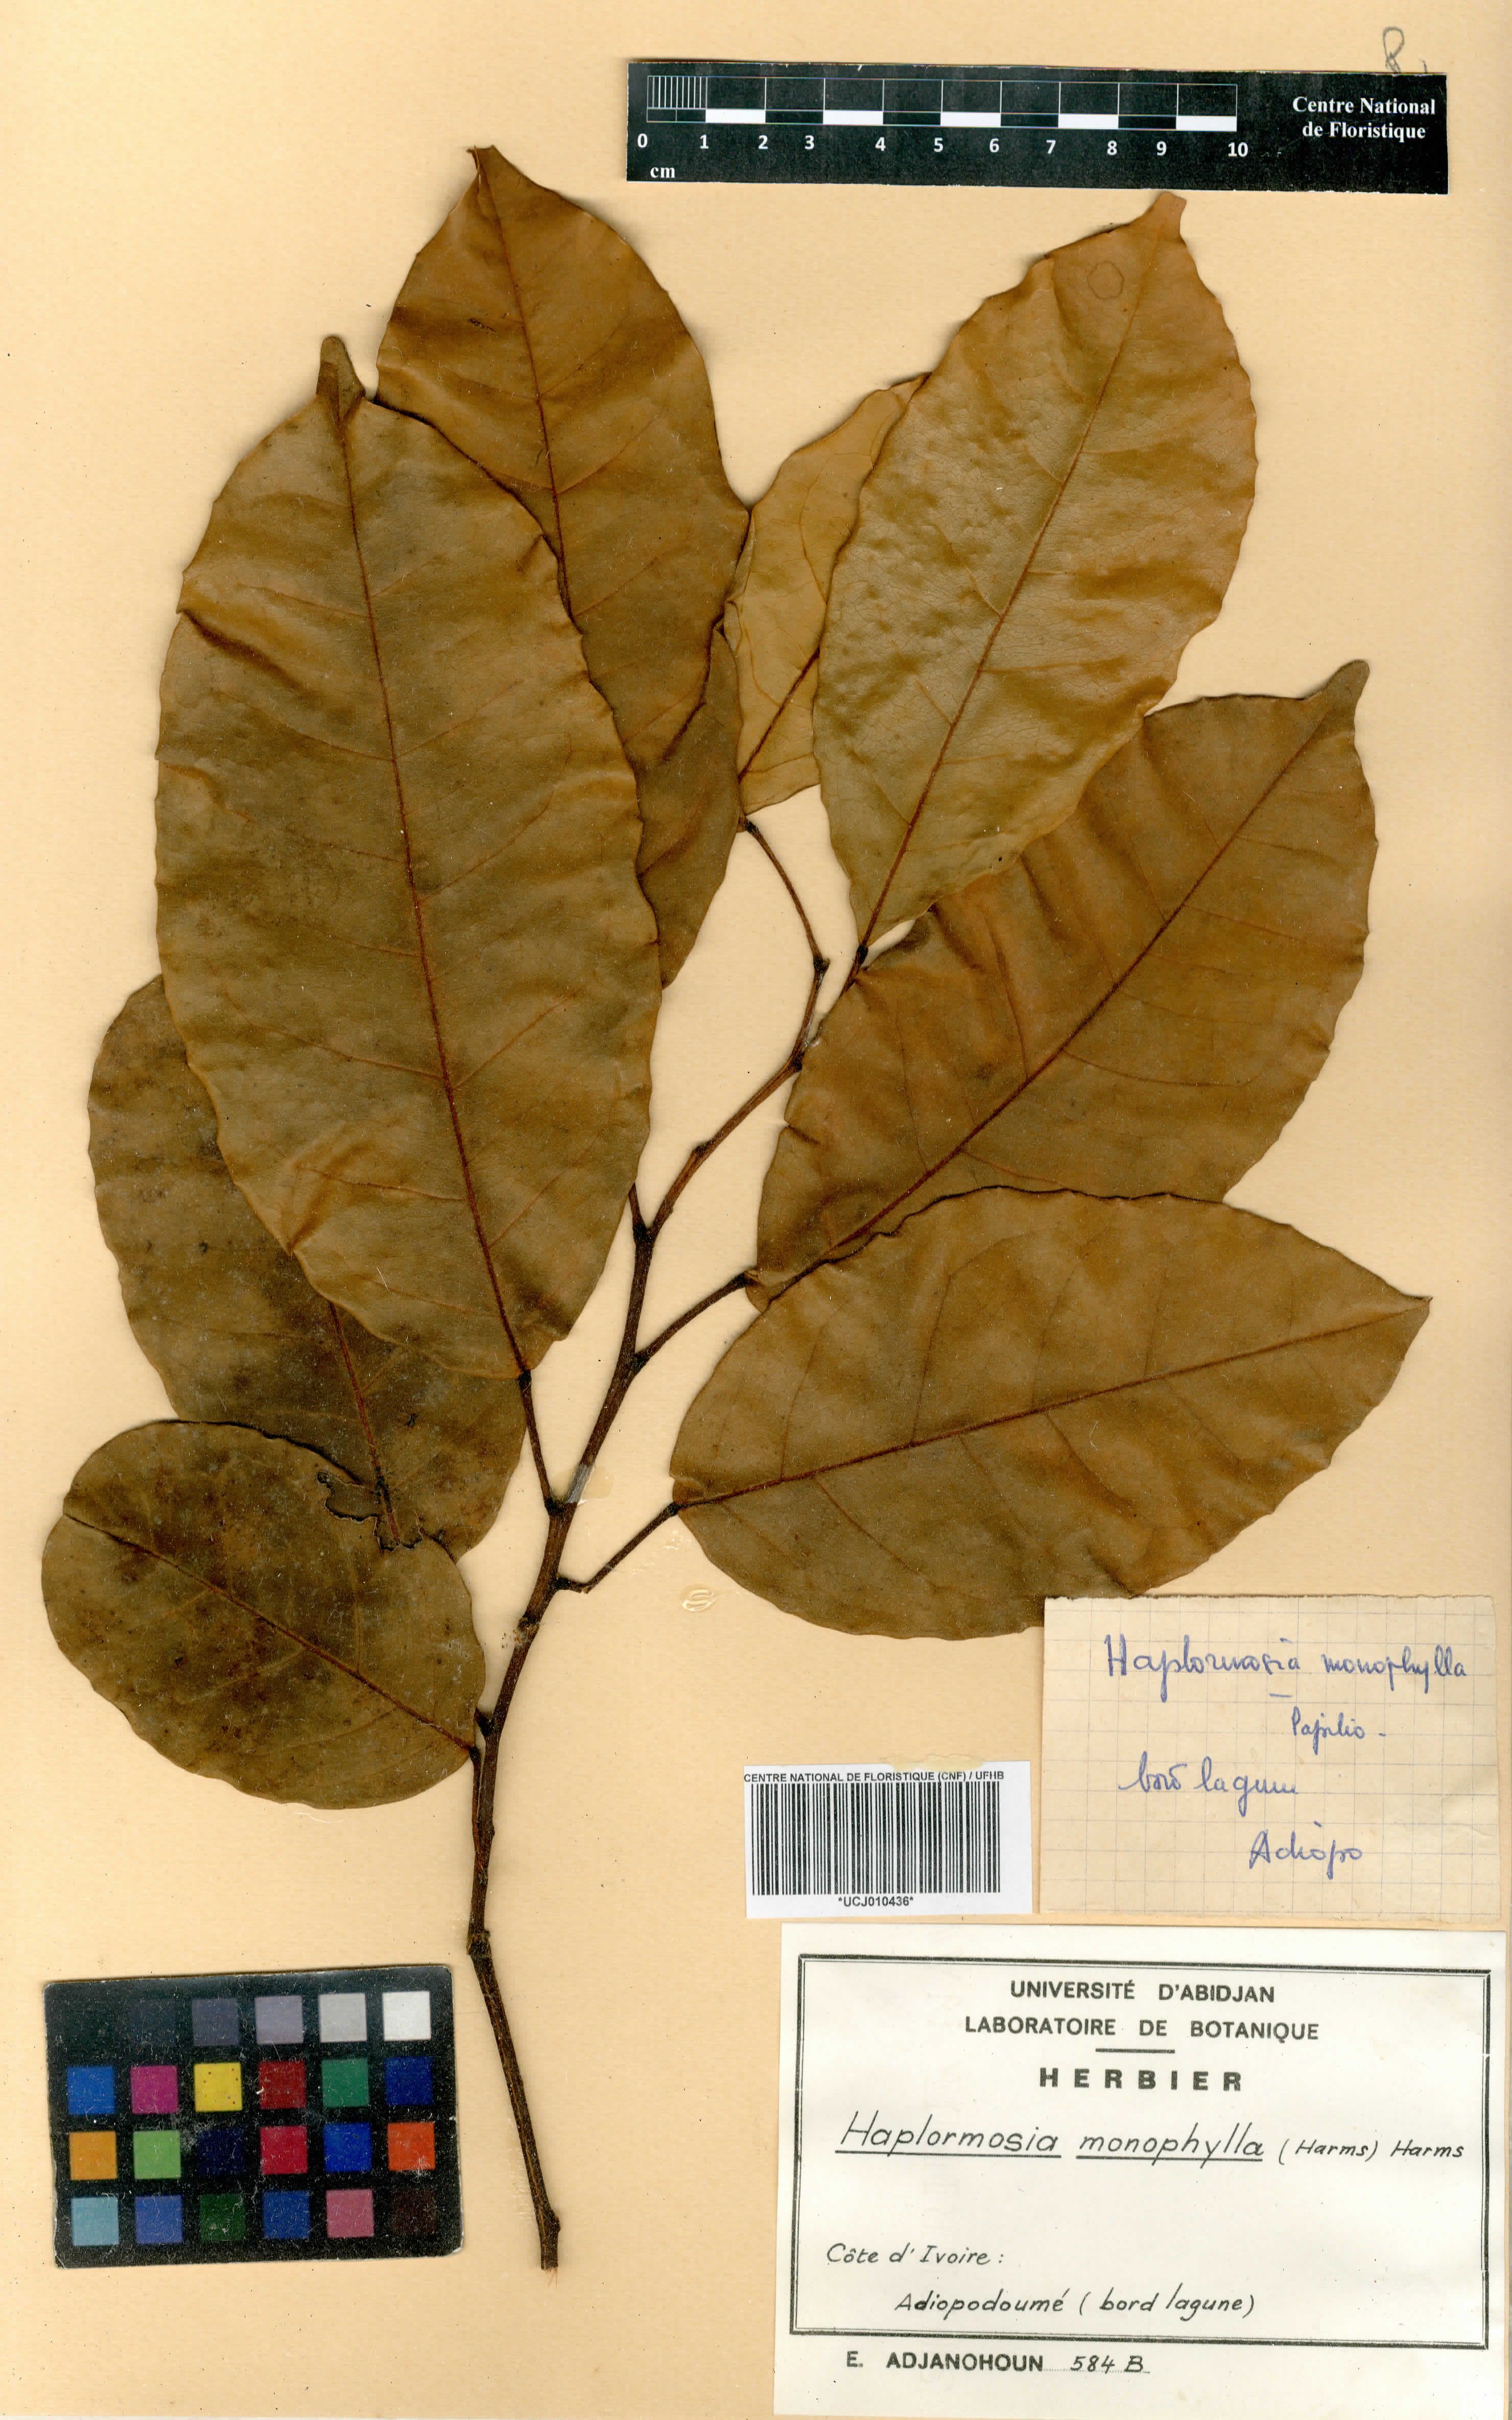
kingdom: Plantae
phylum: Tracheophyta
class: Magnoliopsida
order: Fabales
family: Fabaceae
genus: Haplormosia
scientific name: Haplormosia monophylla
